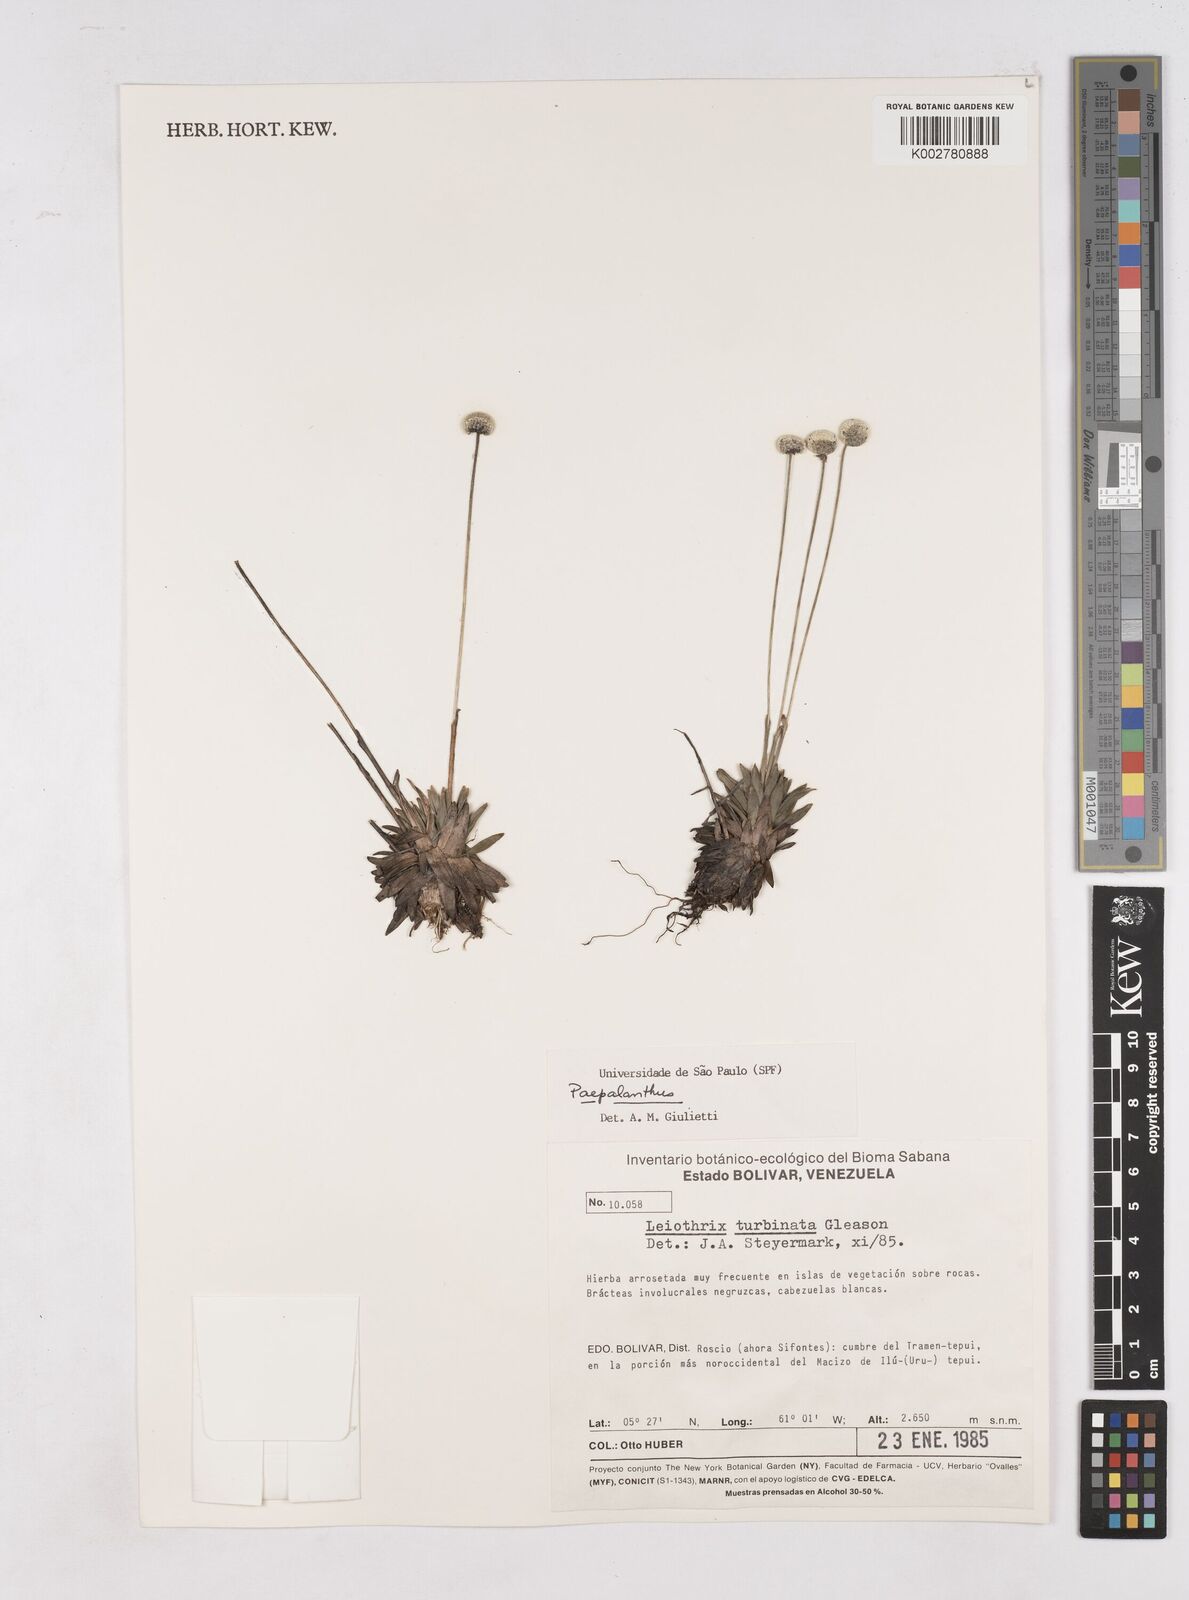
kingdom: Plantae
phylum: Tracheophyta
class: Liliopsida
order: Poales
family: Eriocaulaceae
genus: Paepalanthus
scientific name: Paepalanthus
